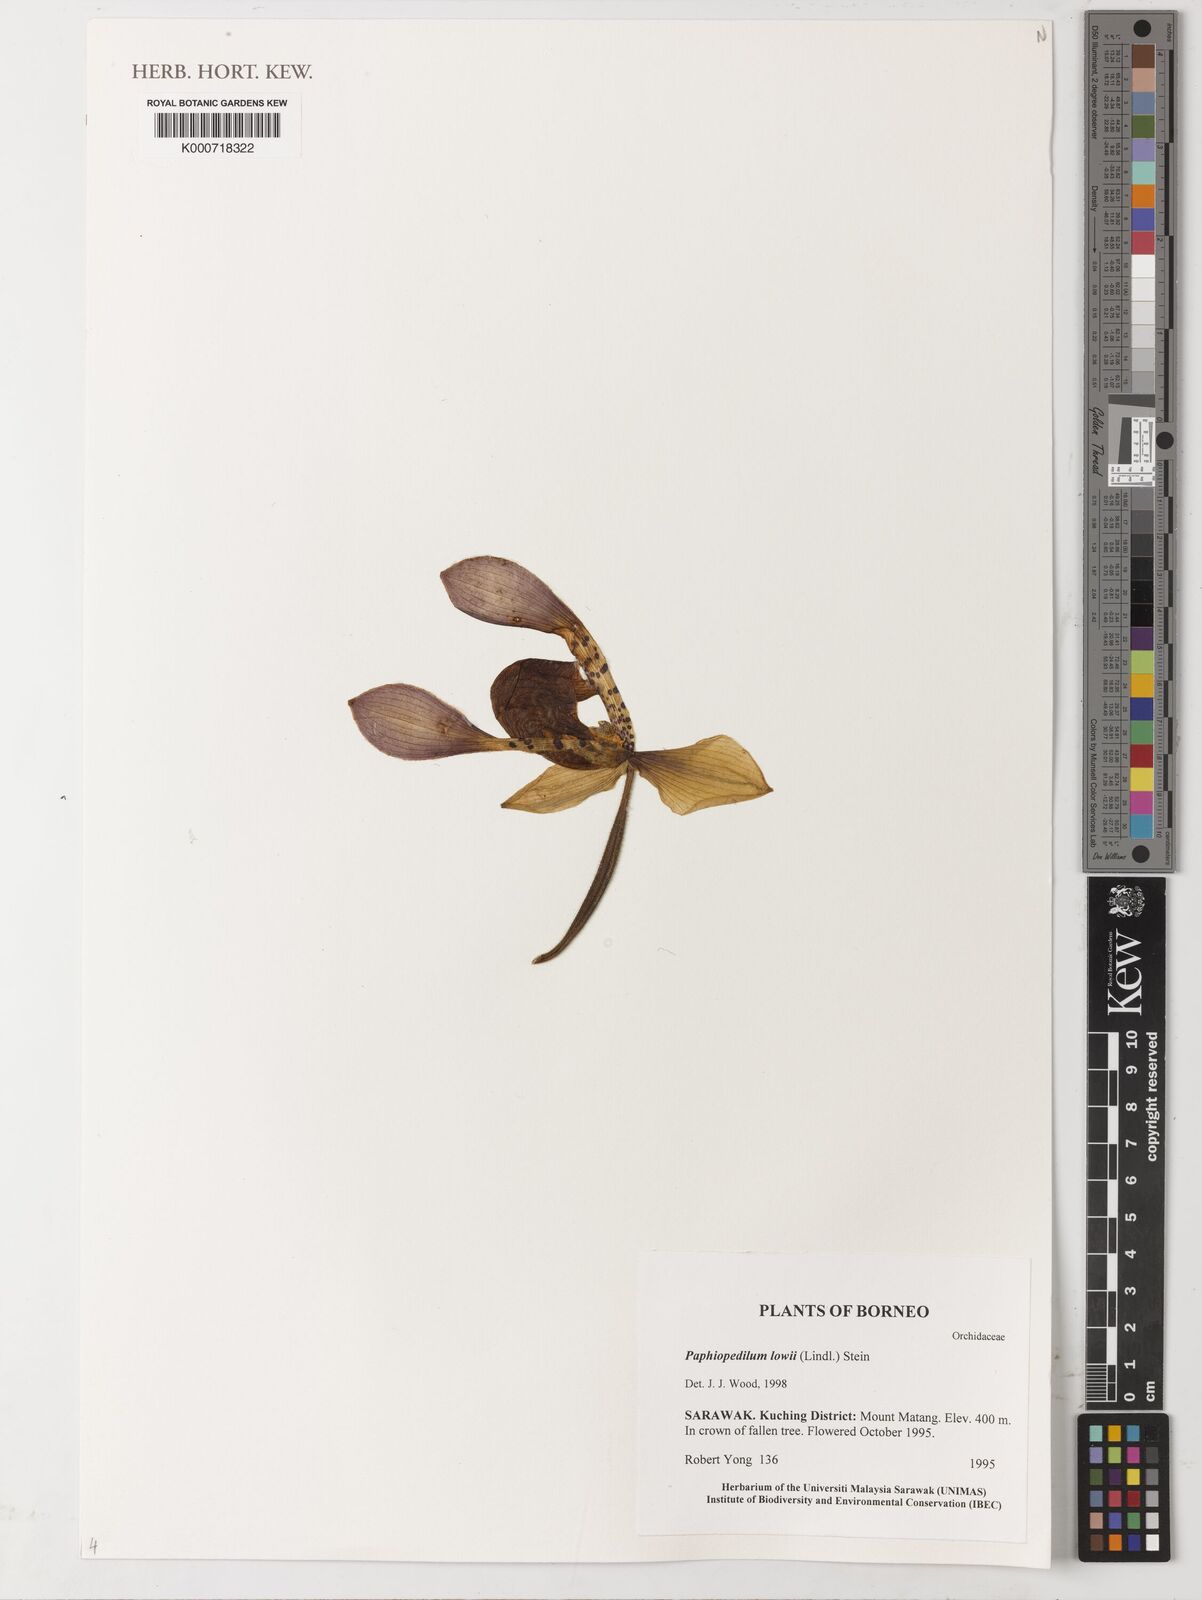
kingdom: Plantae
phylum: Tracheophyta
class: Liliopsida
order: Asparagales
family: Orchidaceae
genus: Paphiopedilum
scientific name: Paphiopedilum lowii
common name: Low's paphiopedilum
